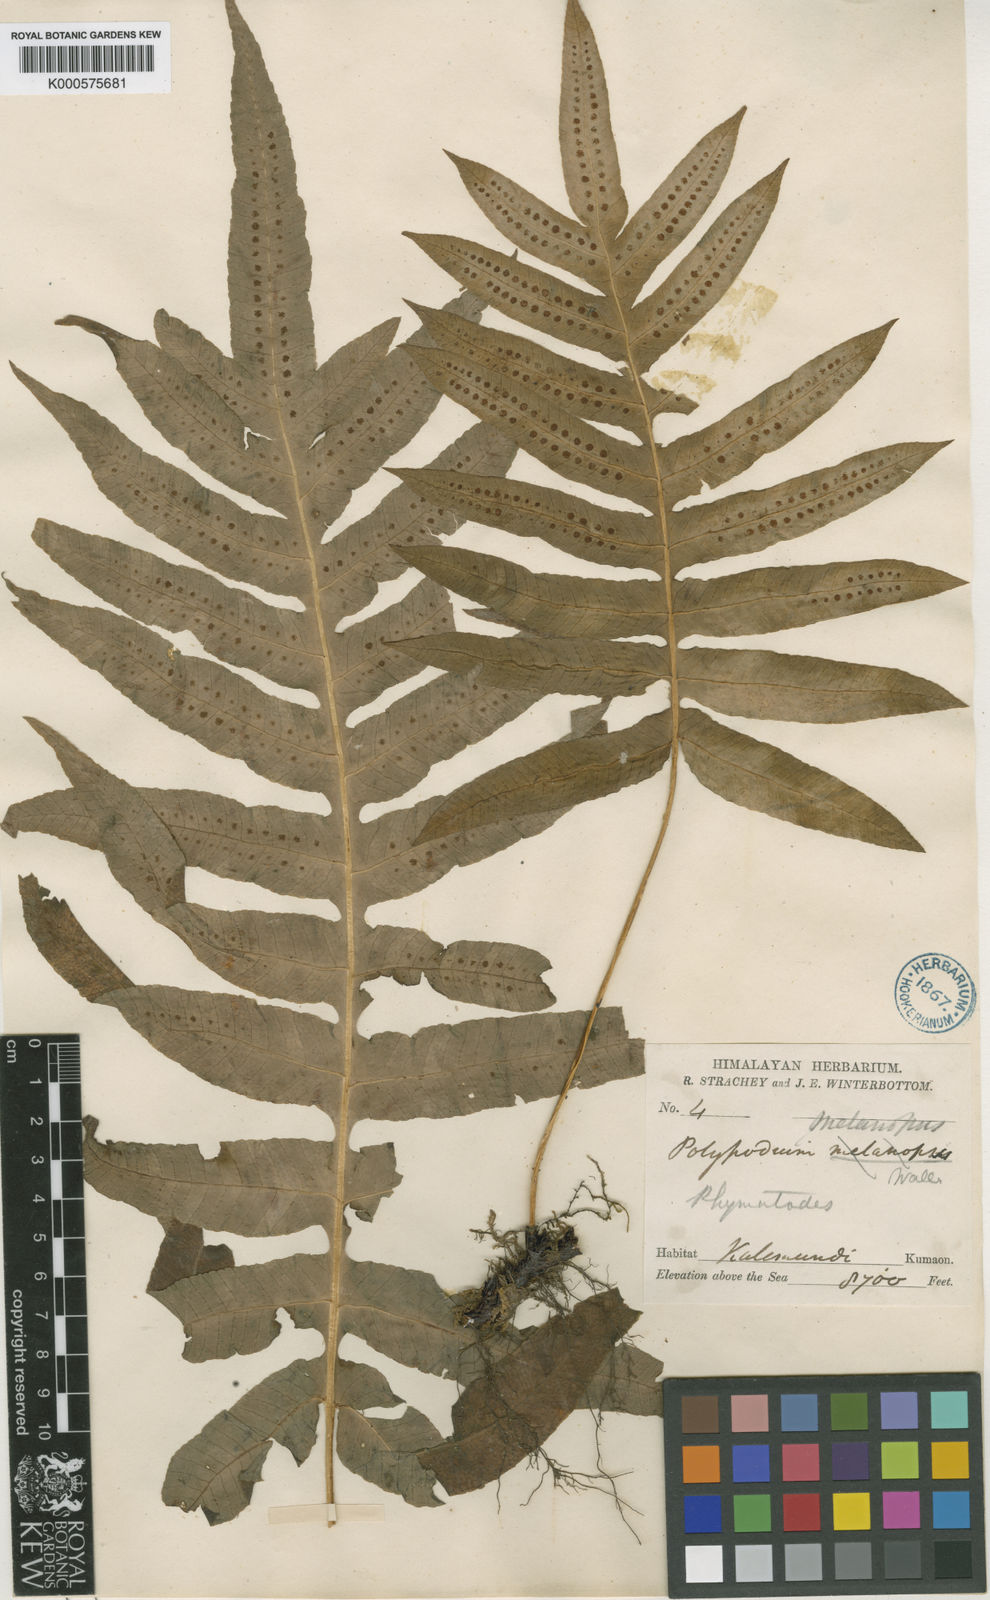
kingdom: Plantae
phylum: Tracheophyta
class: Polypodiopsida
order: Polypodiales
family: Polypodiaceae
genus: Selliguea
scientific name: Selliguea ebenipes
